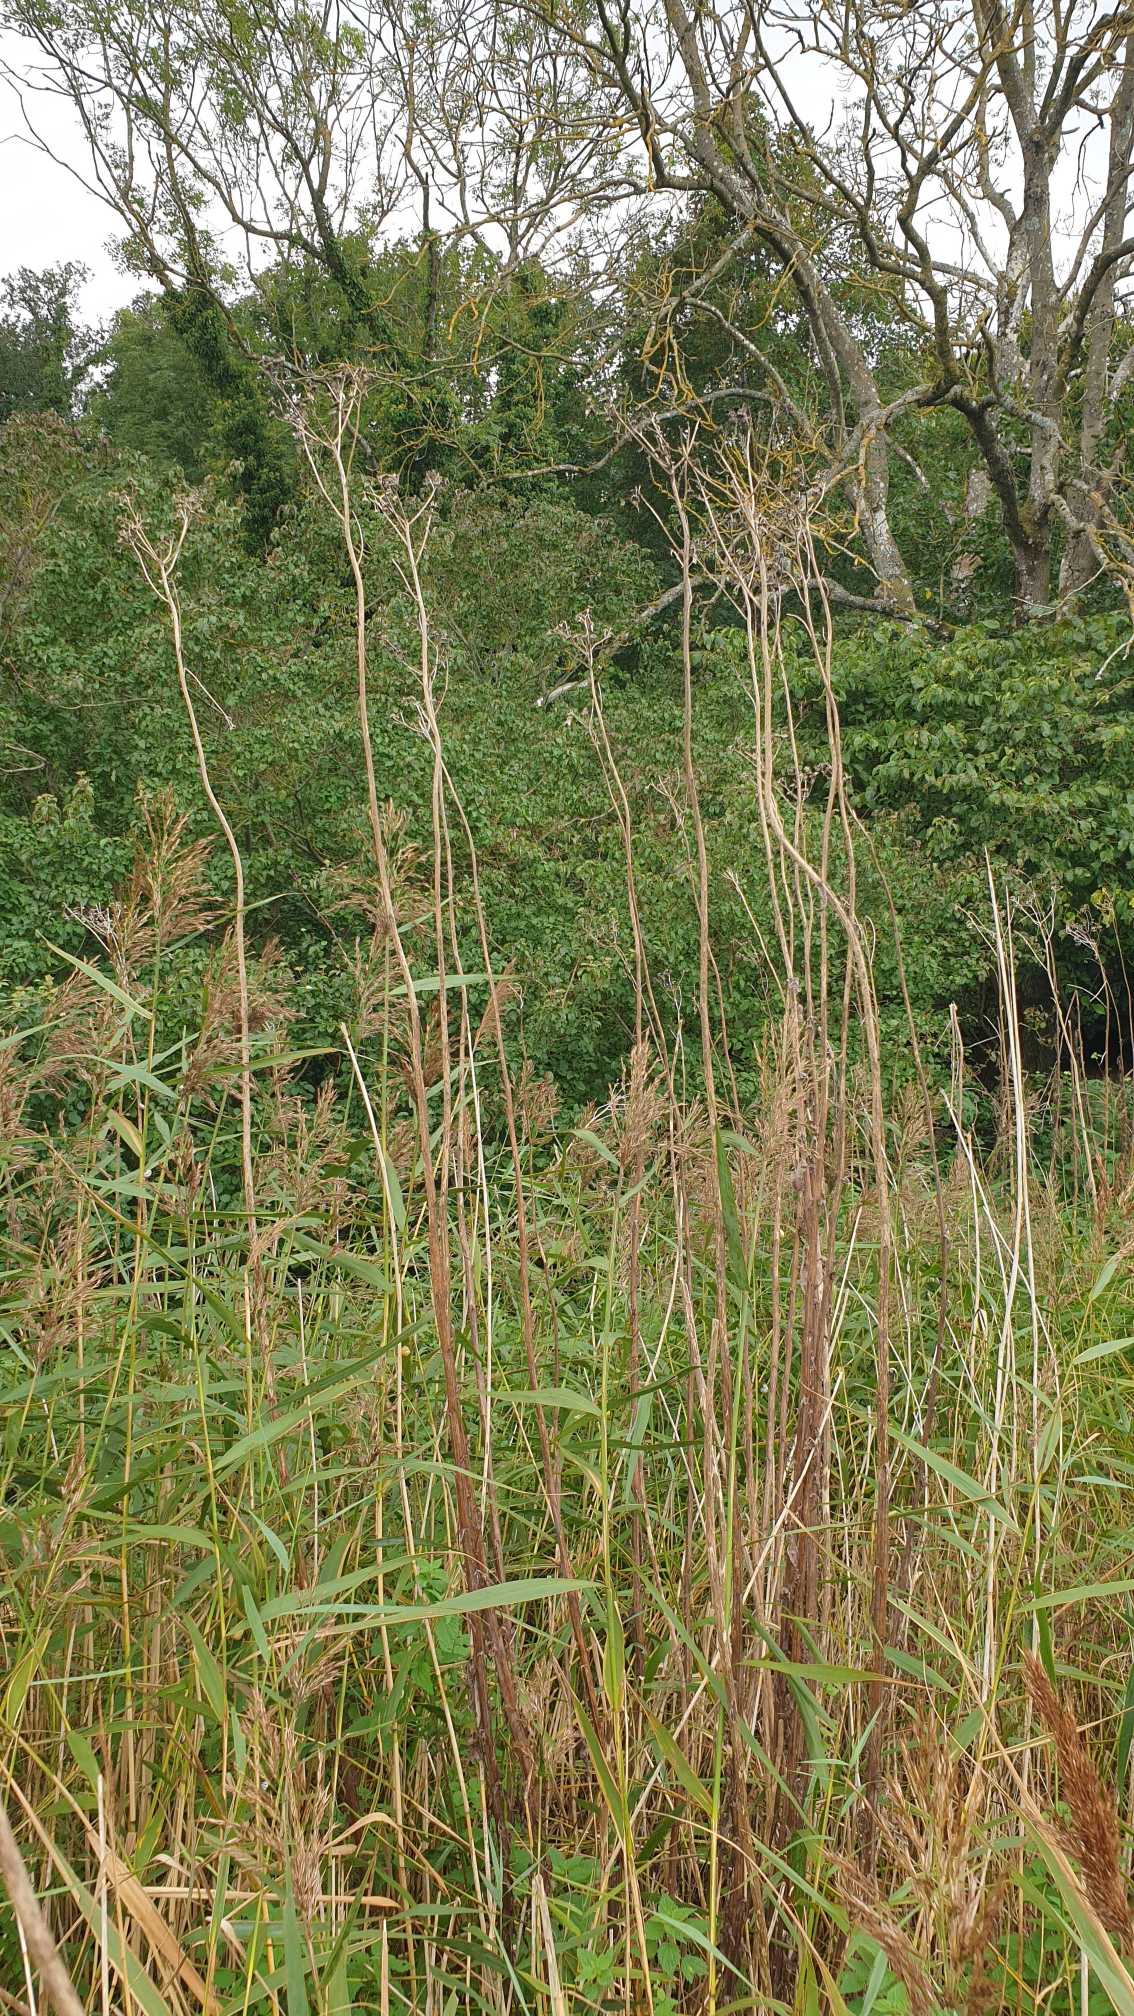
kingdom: Plantae
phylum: Tracheophyta
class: Magnoliopsida
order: Asterales
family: Asteraceae
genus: Sonchus
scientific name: Sonchus palustris
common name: Kær-svinemælk
